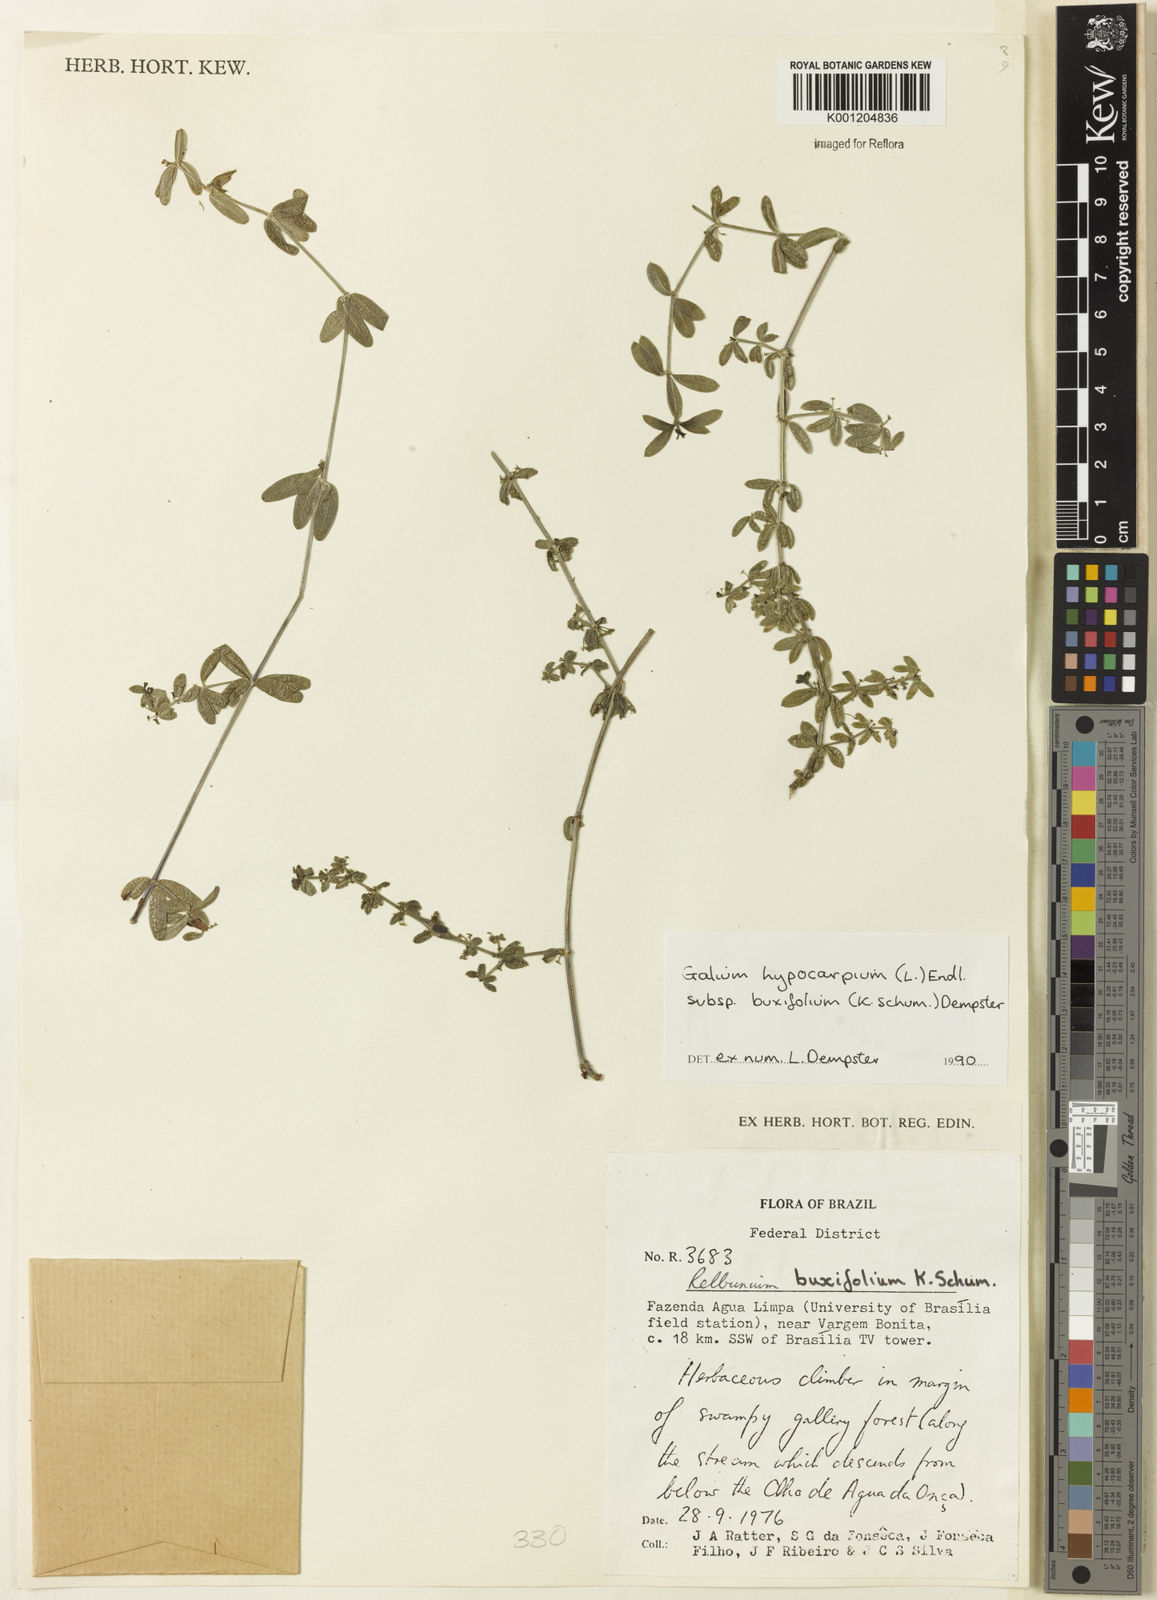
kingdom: Plantae
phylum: Tracheophyta
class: Magnoliopsida
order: Gentianales
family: Rubiaceae
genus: Galium
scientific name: Galium hypocarpium
